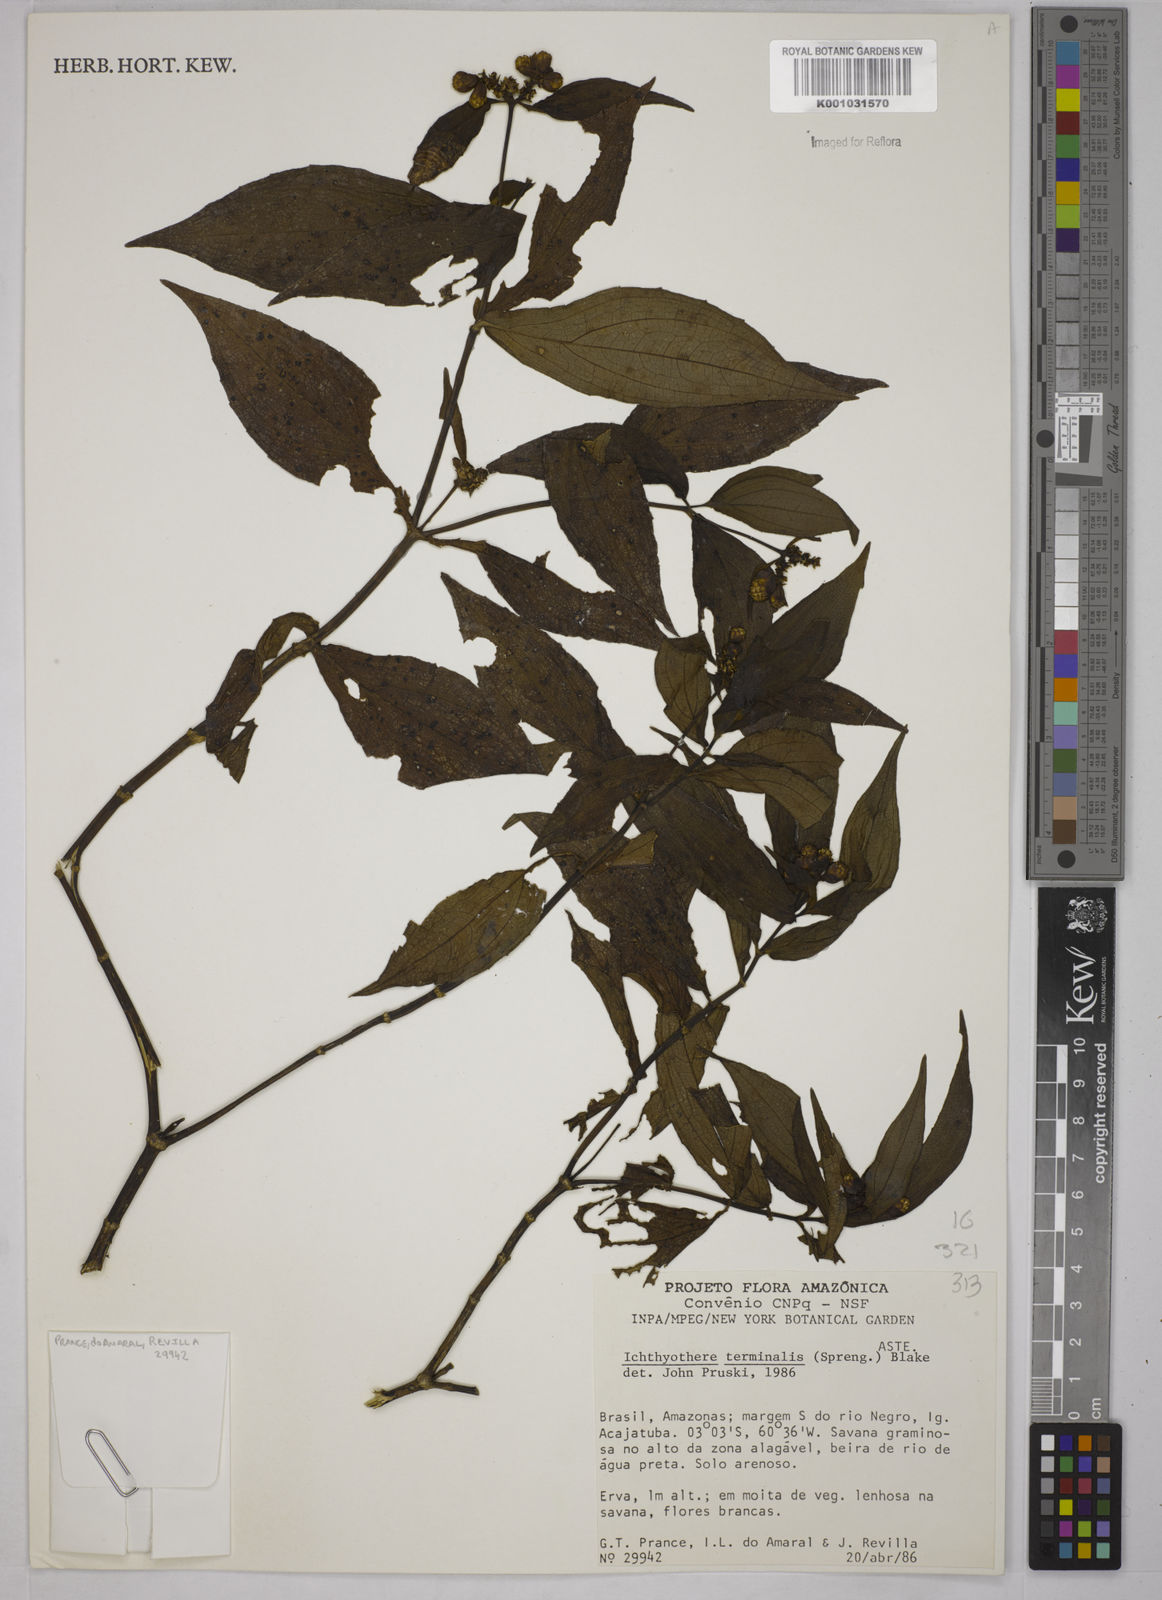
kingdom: Plantae
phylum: Tracheophyta
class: Magnoliopsida
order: Asterales
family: Asteraceae
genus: Ichthyothere
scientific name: Ichthyothere cunabi
